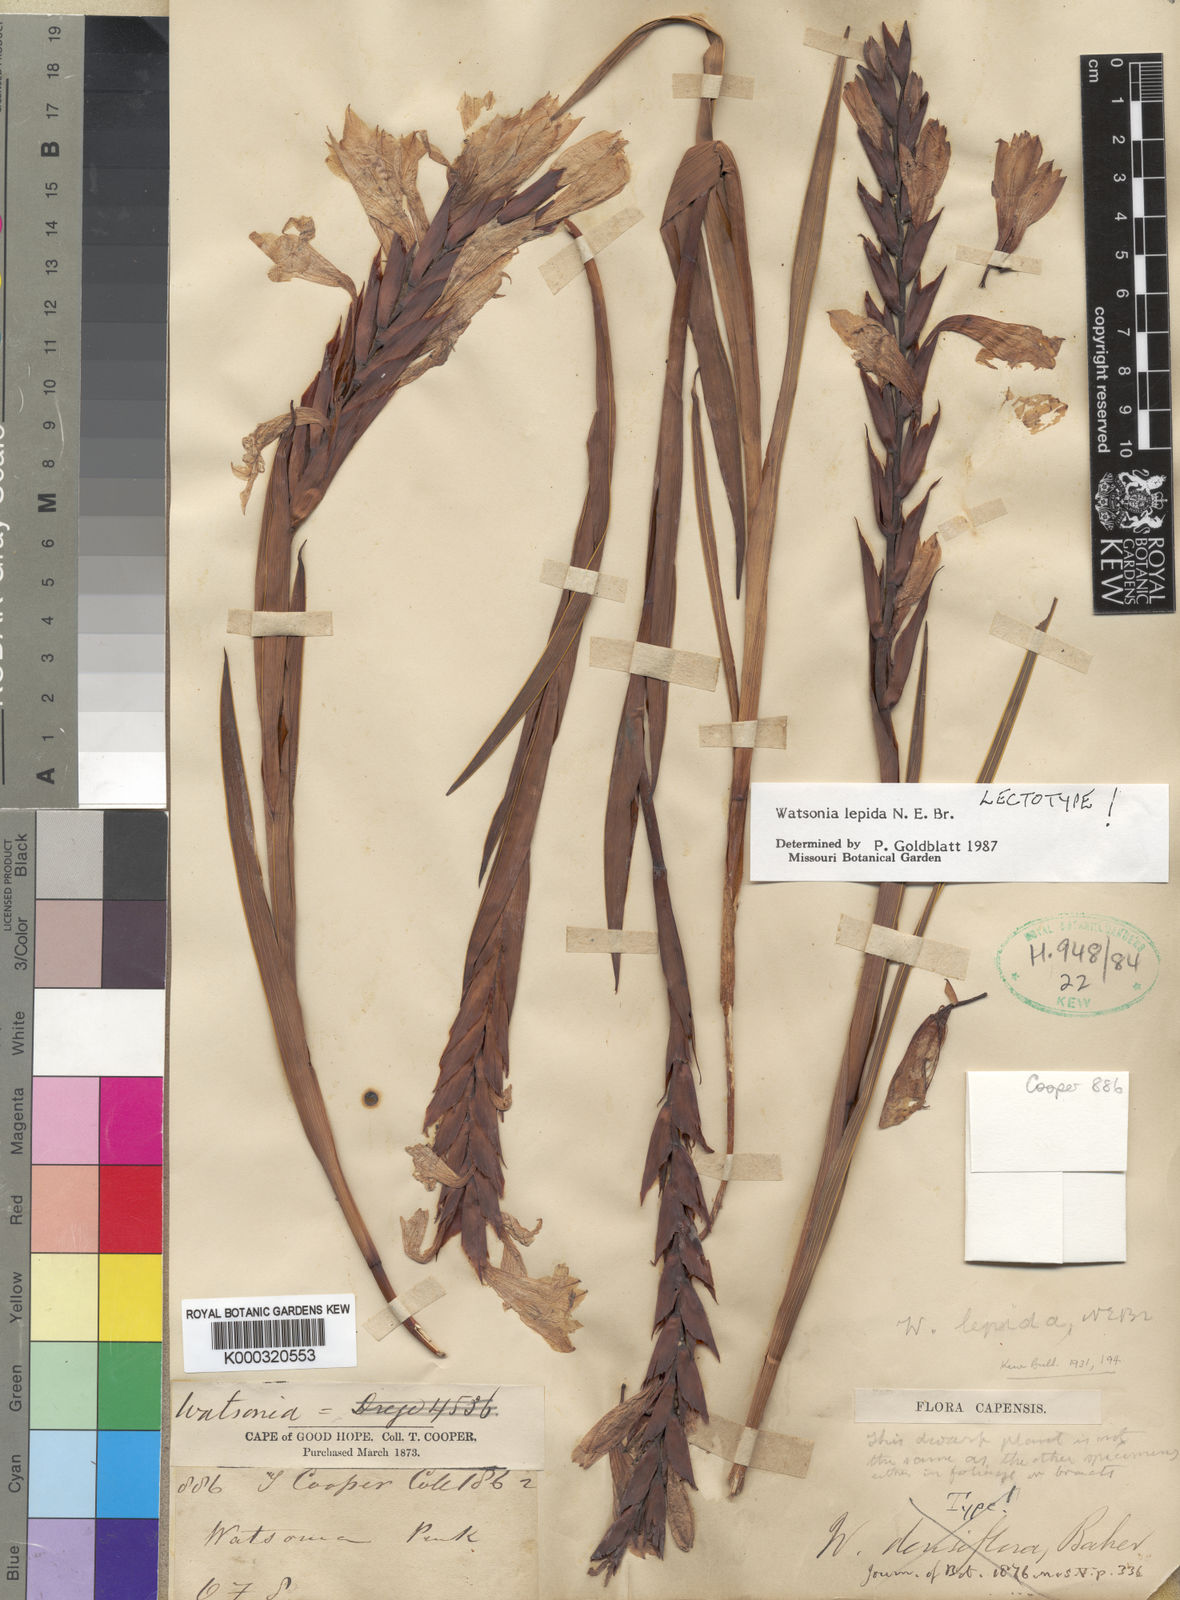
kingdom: Plantae
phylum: Tracheophyta
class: Liliopsida
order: Asparagales
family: Iridaceae
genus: Watsonia
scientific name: Watsonia lepida
